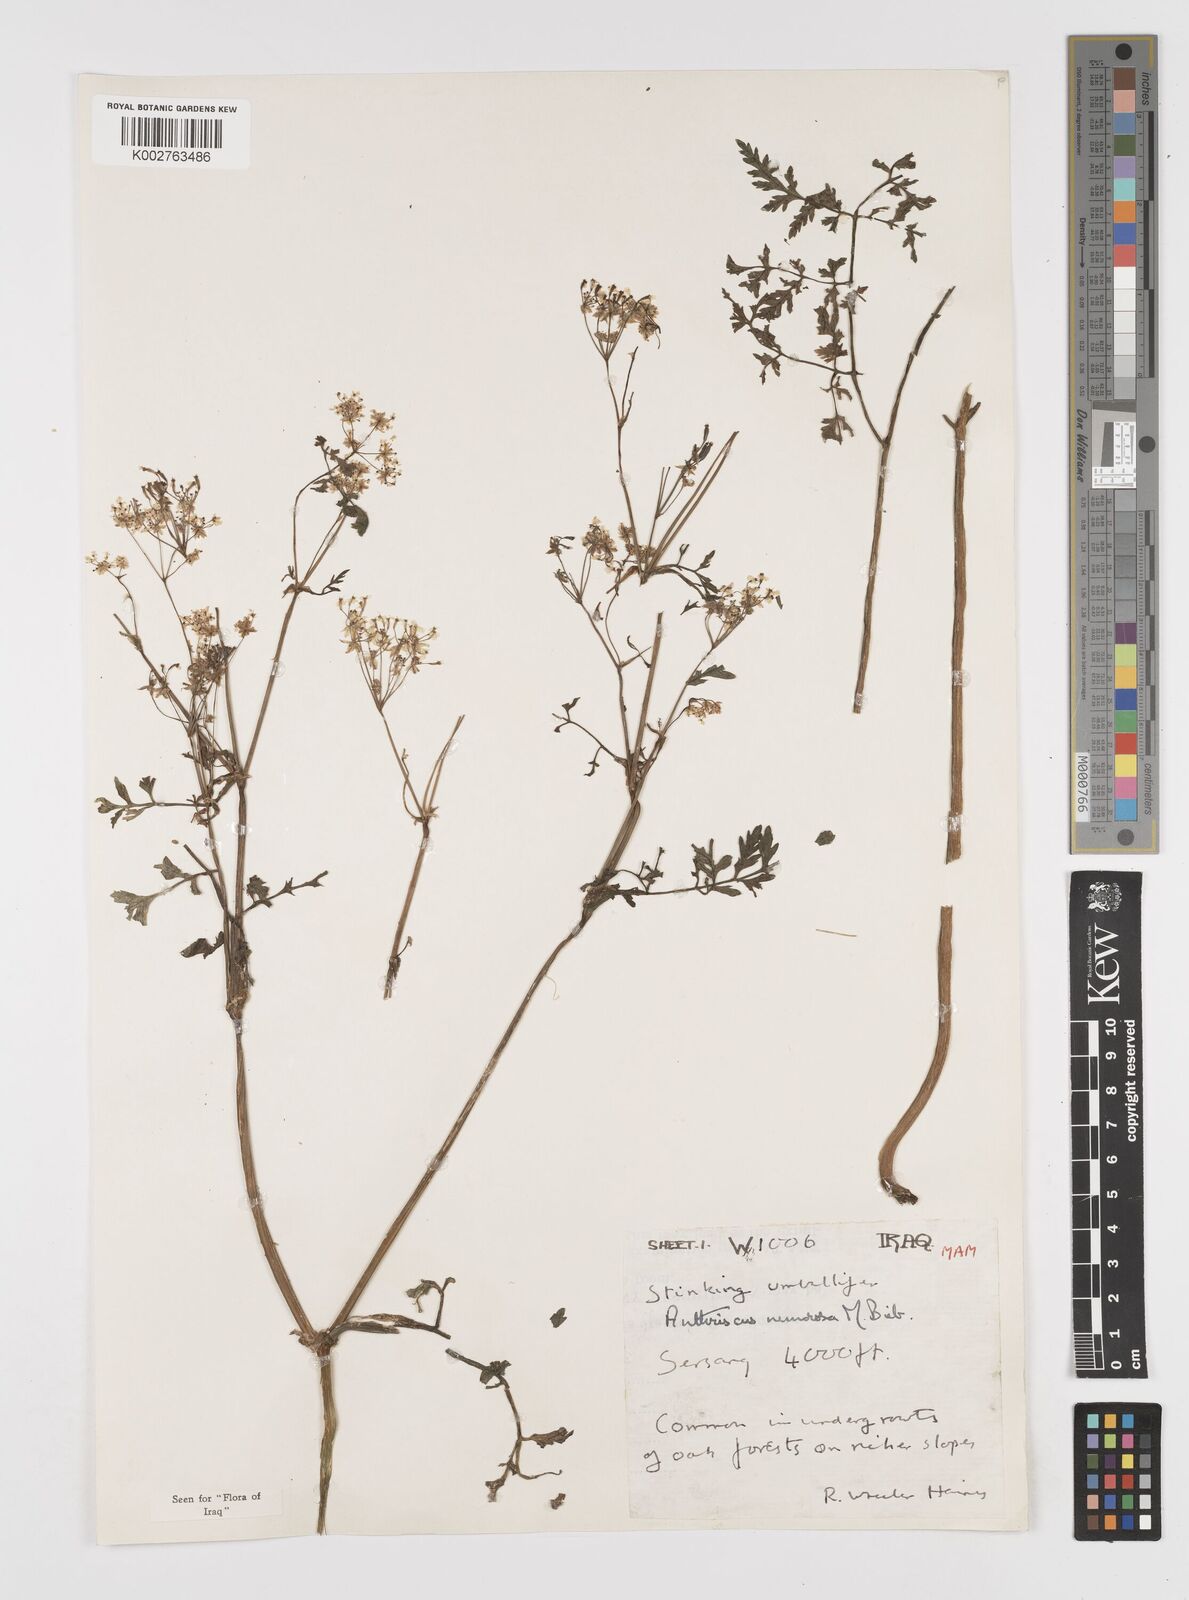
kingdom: Plantae
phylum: Tracheophyta
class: Magnoliopsida
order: Apiales
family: Apiaceae
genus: Anthriscus
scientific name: Anthriscus sylvestris
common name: Cow parsley
